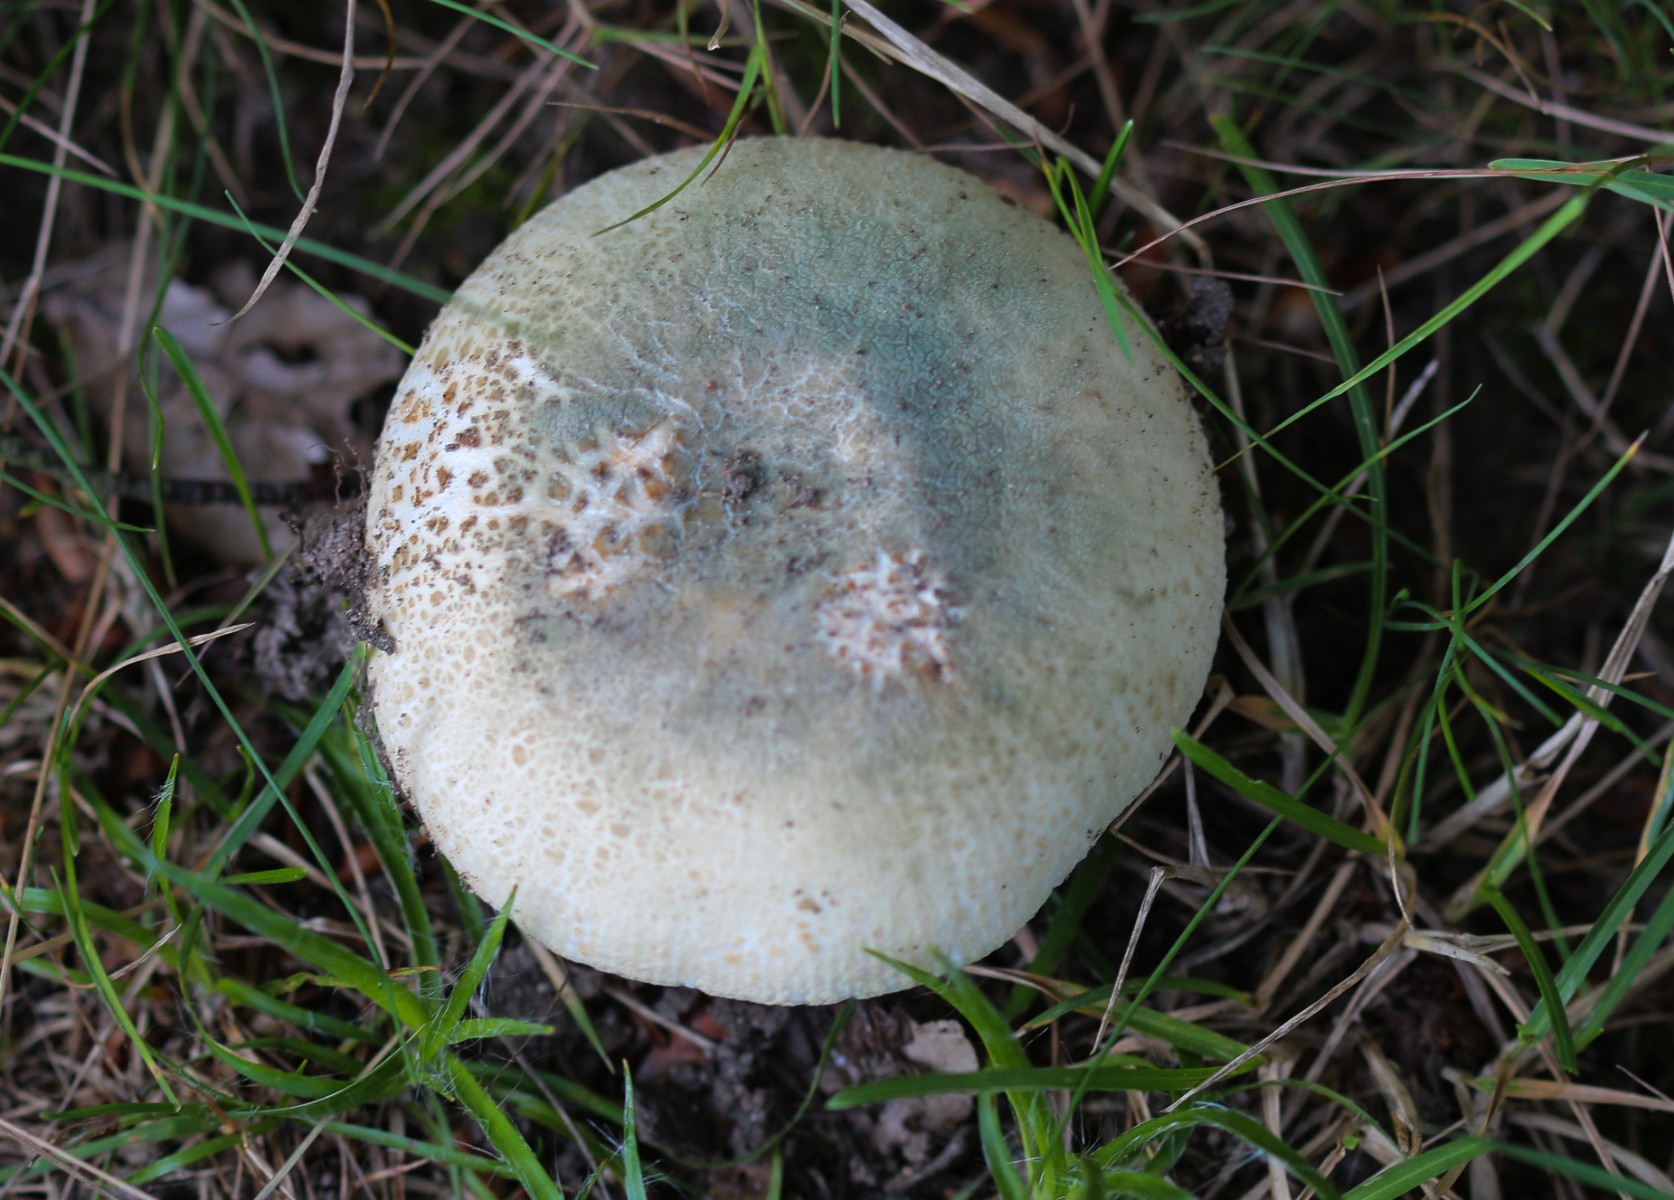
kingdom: Fungi
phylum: Basidiomycota
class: Agaricomycetes
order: Russulales
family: Russulaceae
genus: Russula
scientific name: Russula virescens
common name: spanskgrøn skørhat
